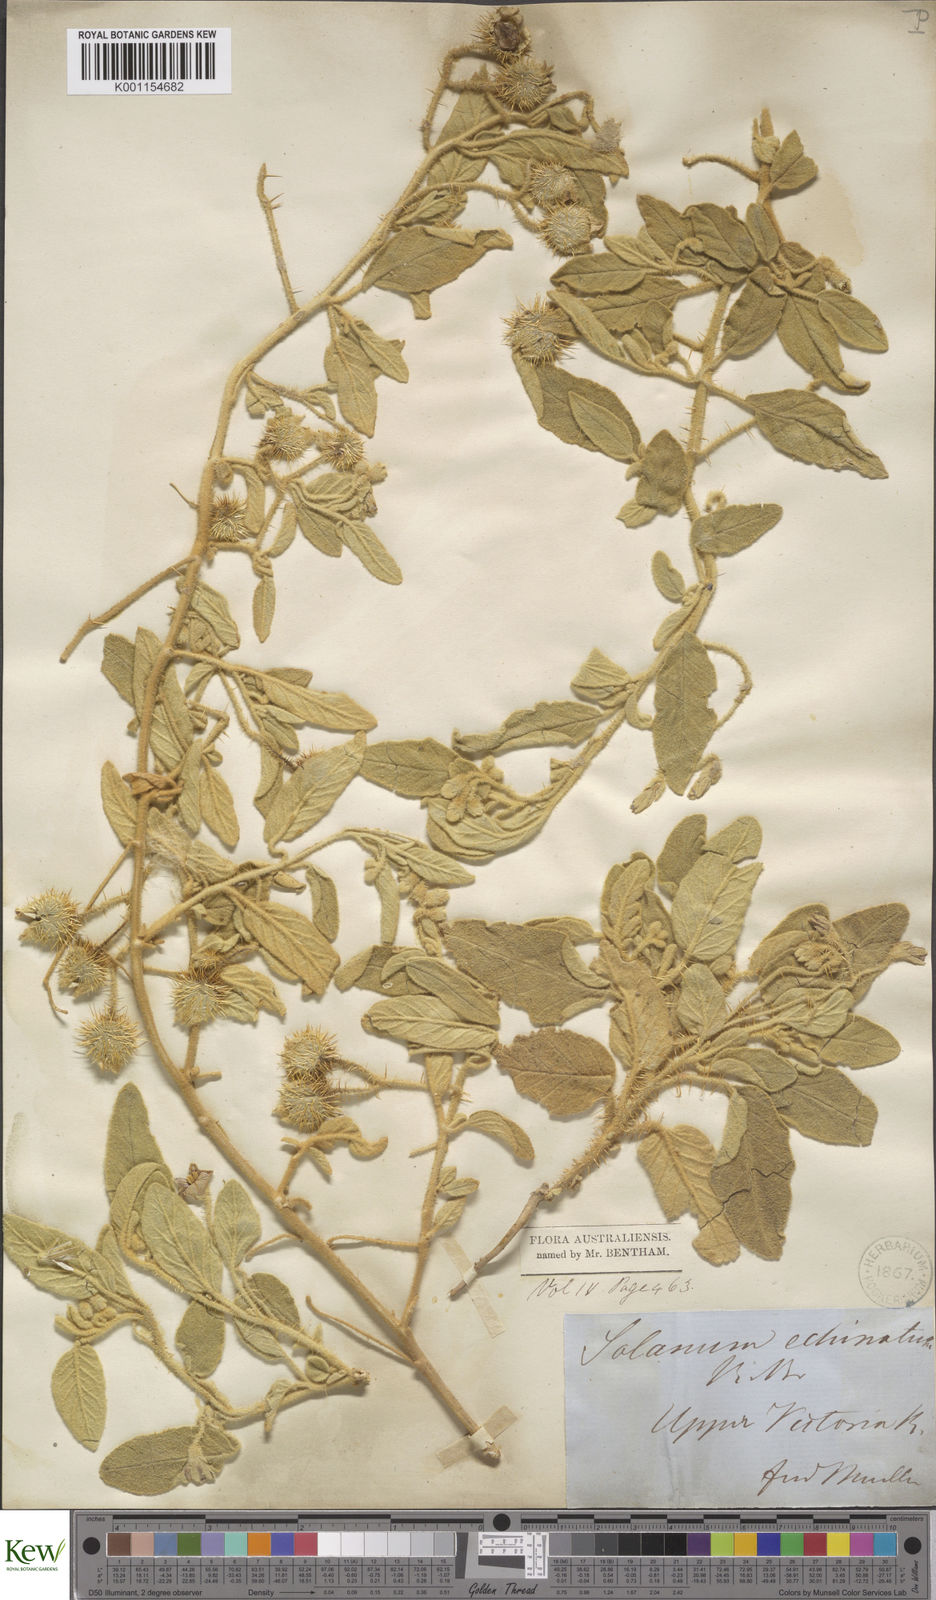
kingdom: Plantae
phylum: Tracheophyta
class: Magnoliopsida
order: Solanales
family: Solanaceae
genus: Solanum
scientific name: Solanum echinatum
